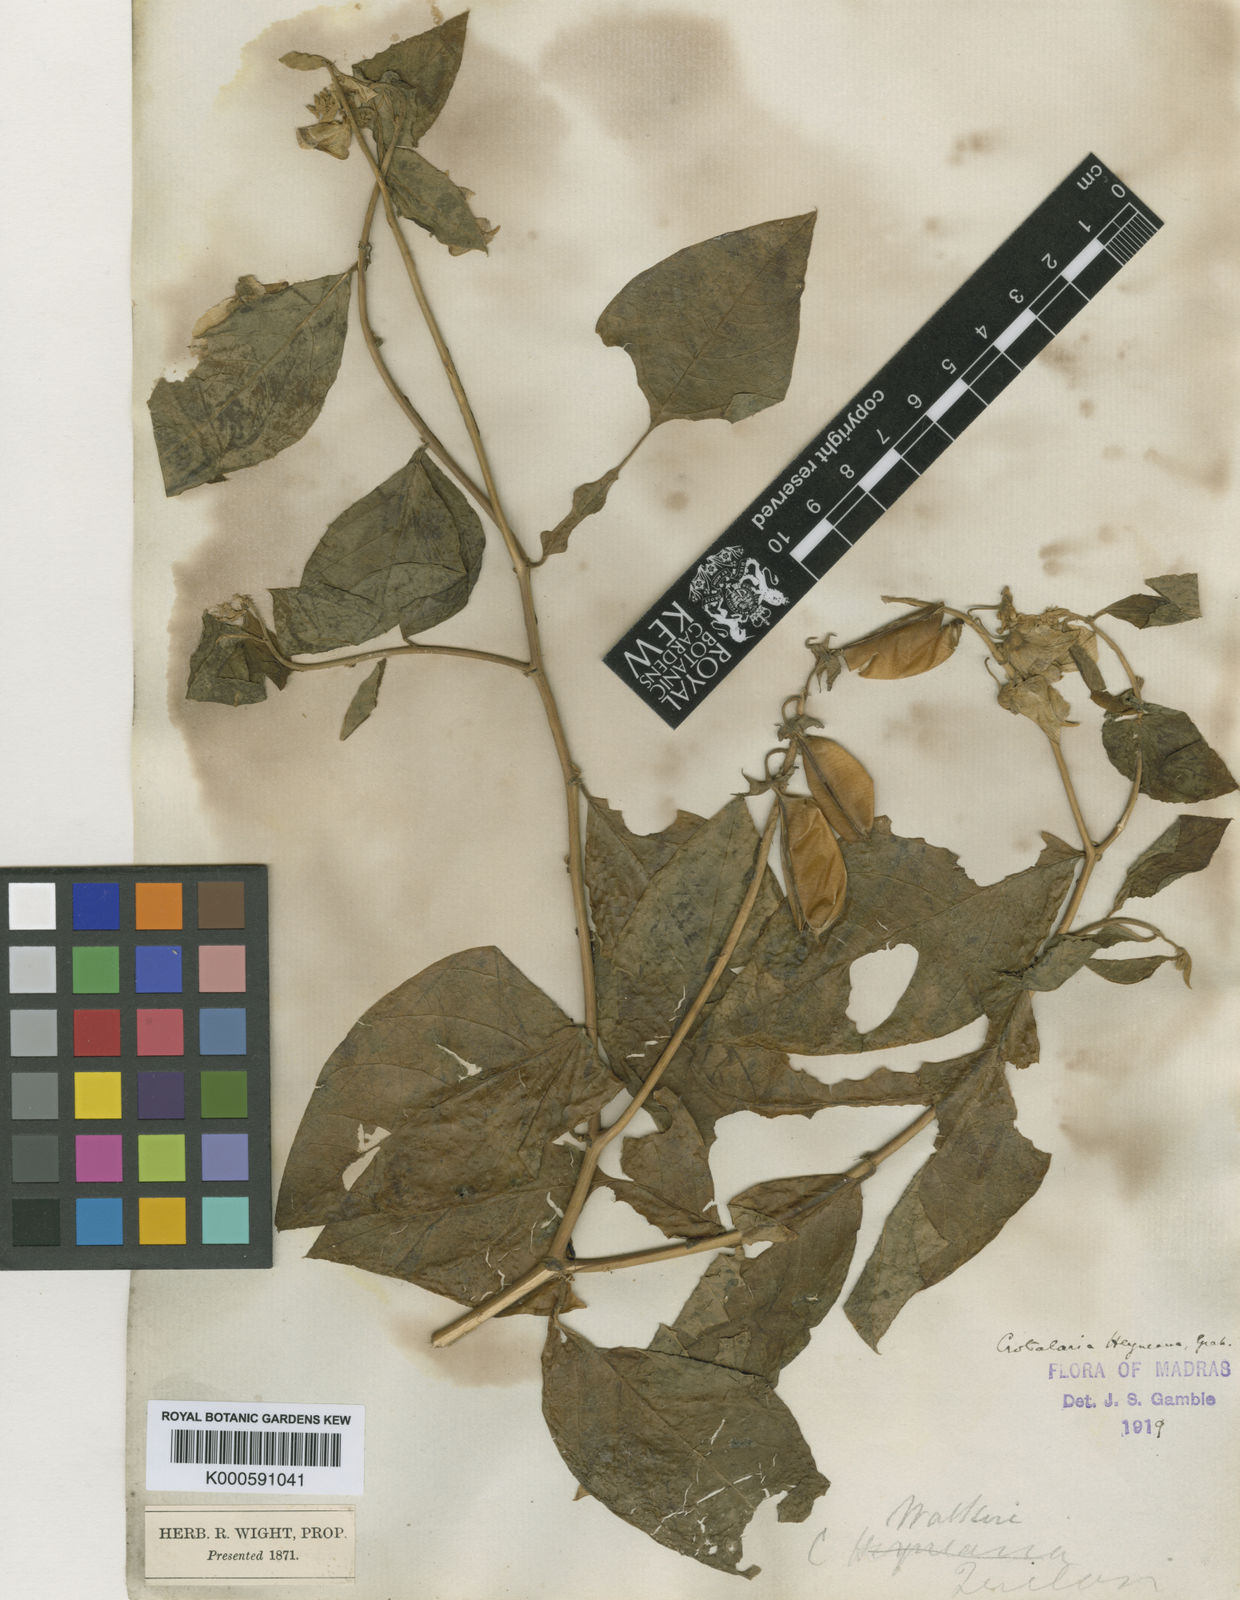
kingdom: Plantae
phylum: Tracheophyta
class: Magnoliopsida
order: Fabales
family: Fabaceae
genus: Crotalaria
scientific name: Crotalaria
